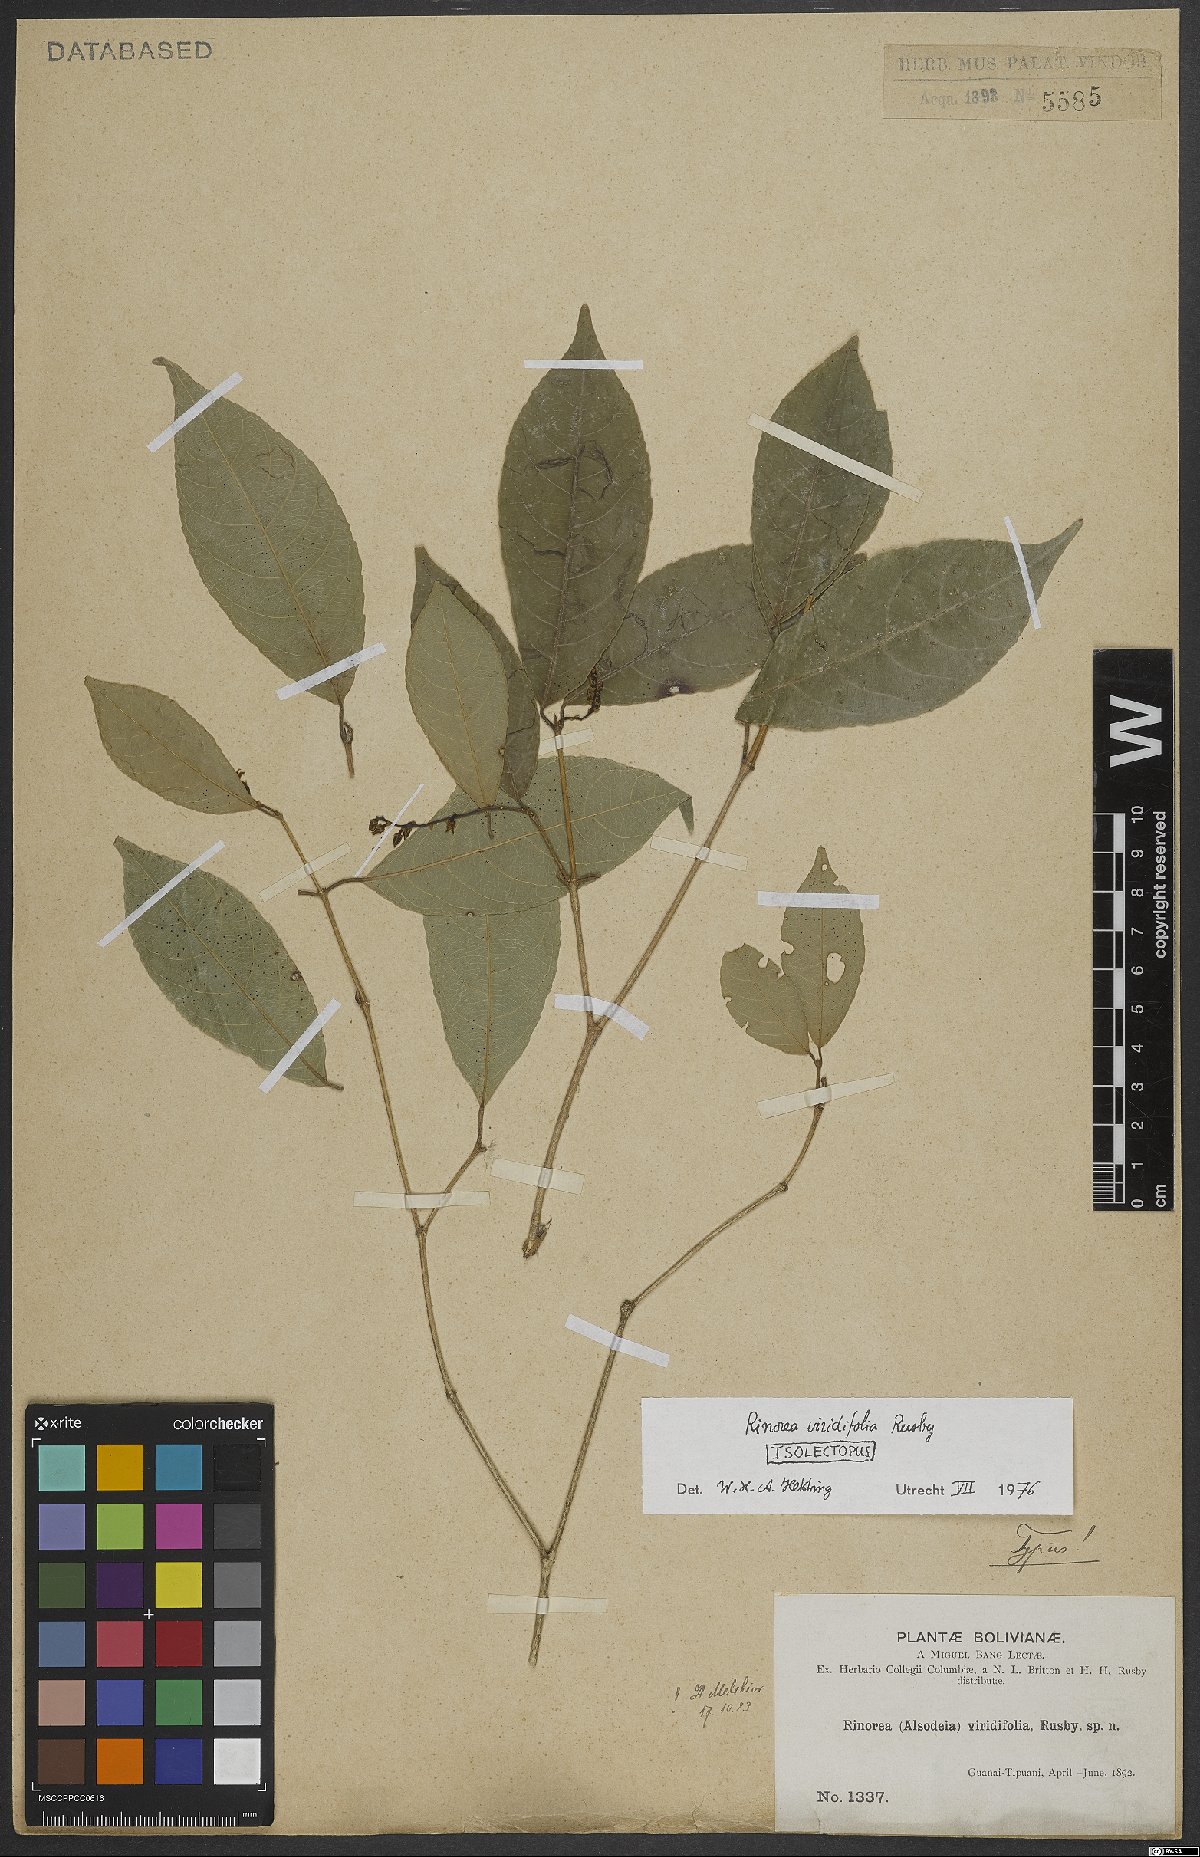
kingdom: Plantae
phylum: Tracheophyta
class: Magnoliopsida
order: Malpighiales
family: Violaceae
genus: Rinorea
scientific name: Rinorea viridifolia
